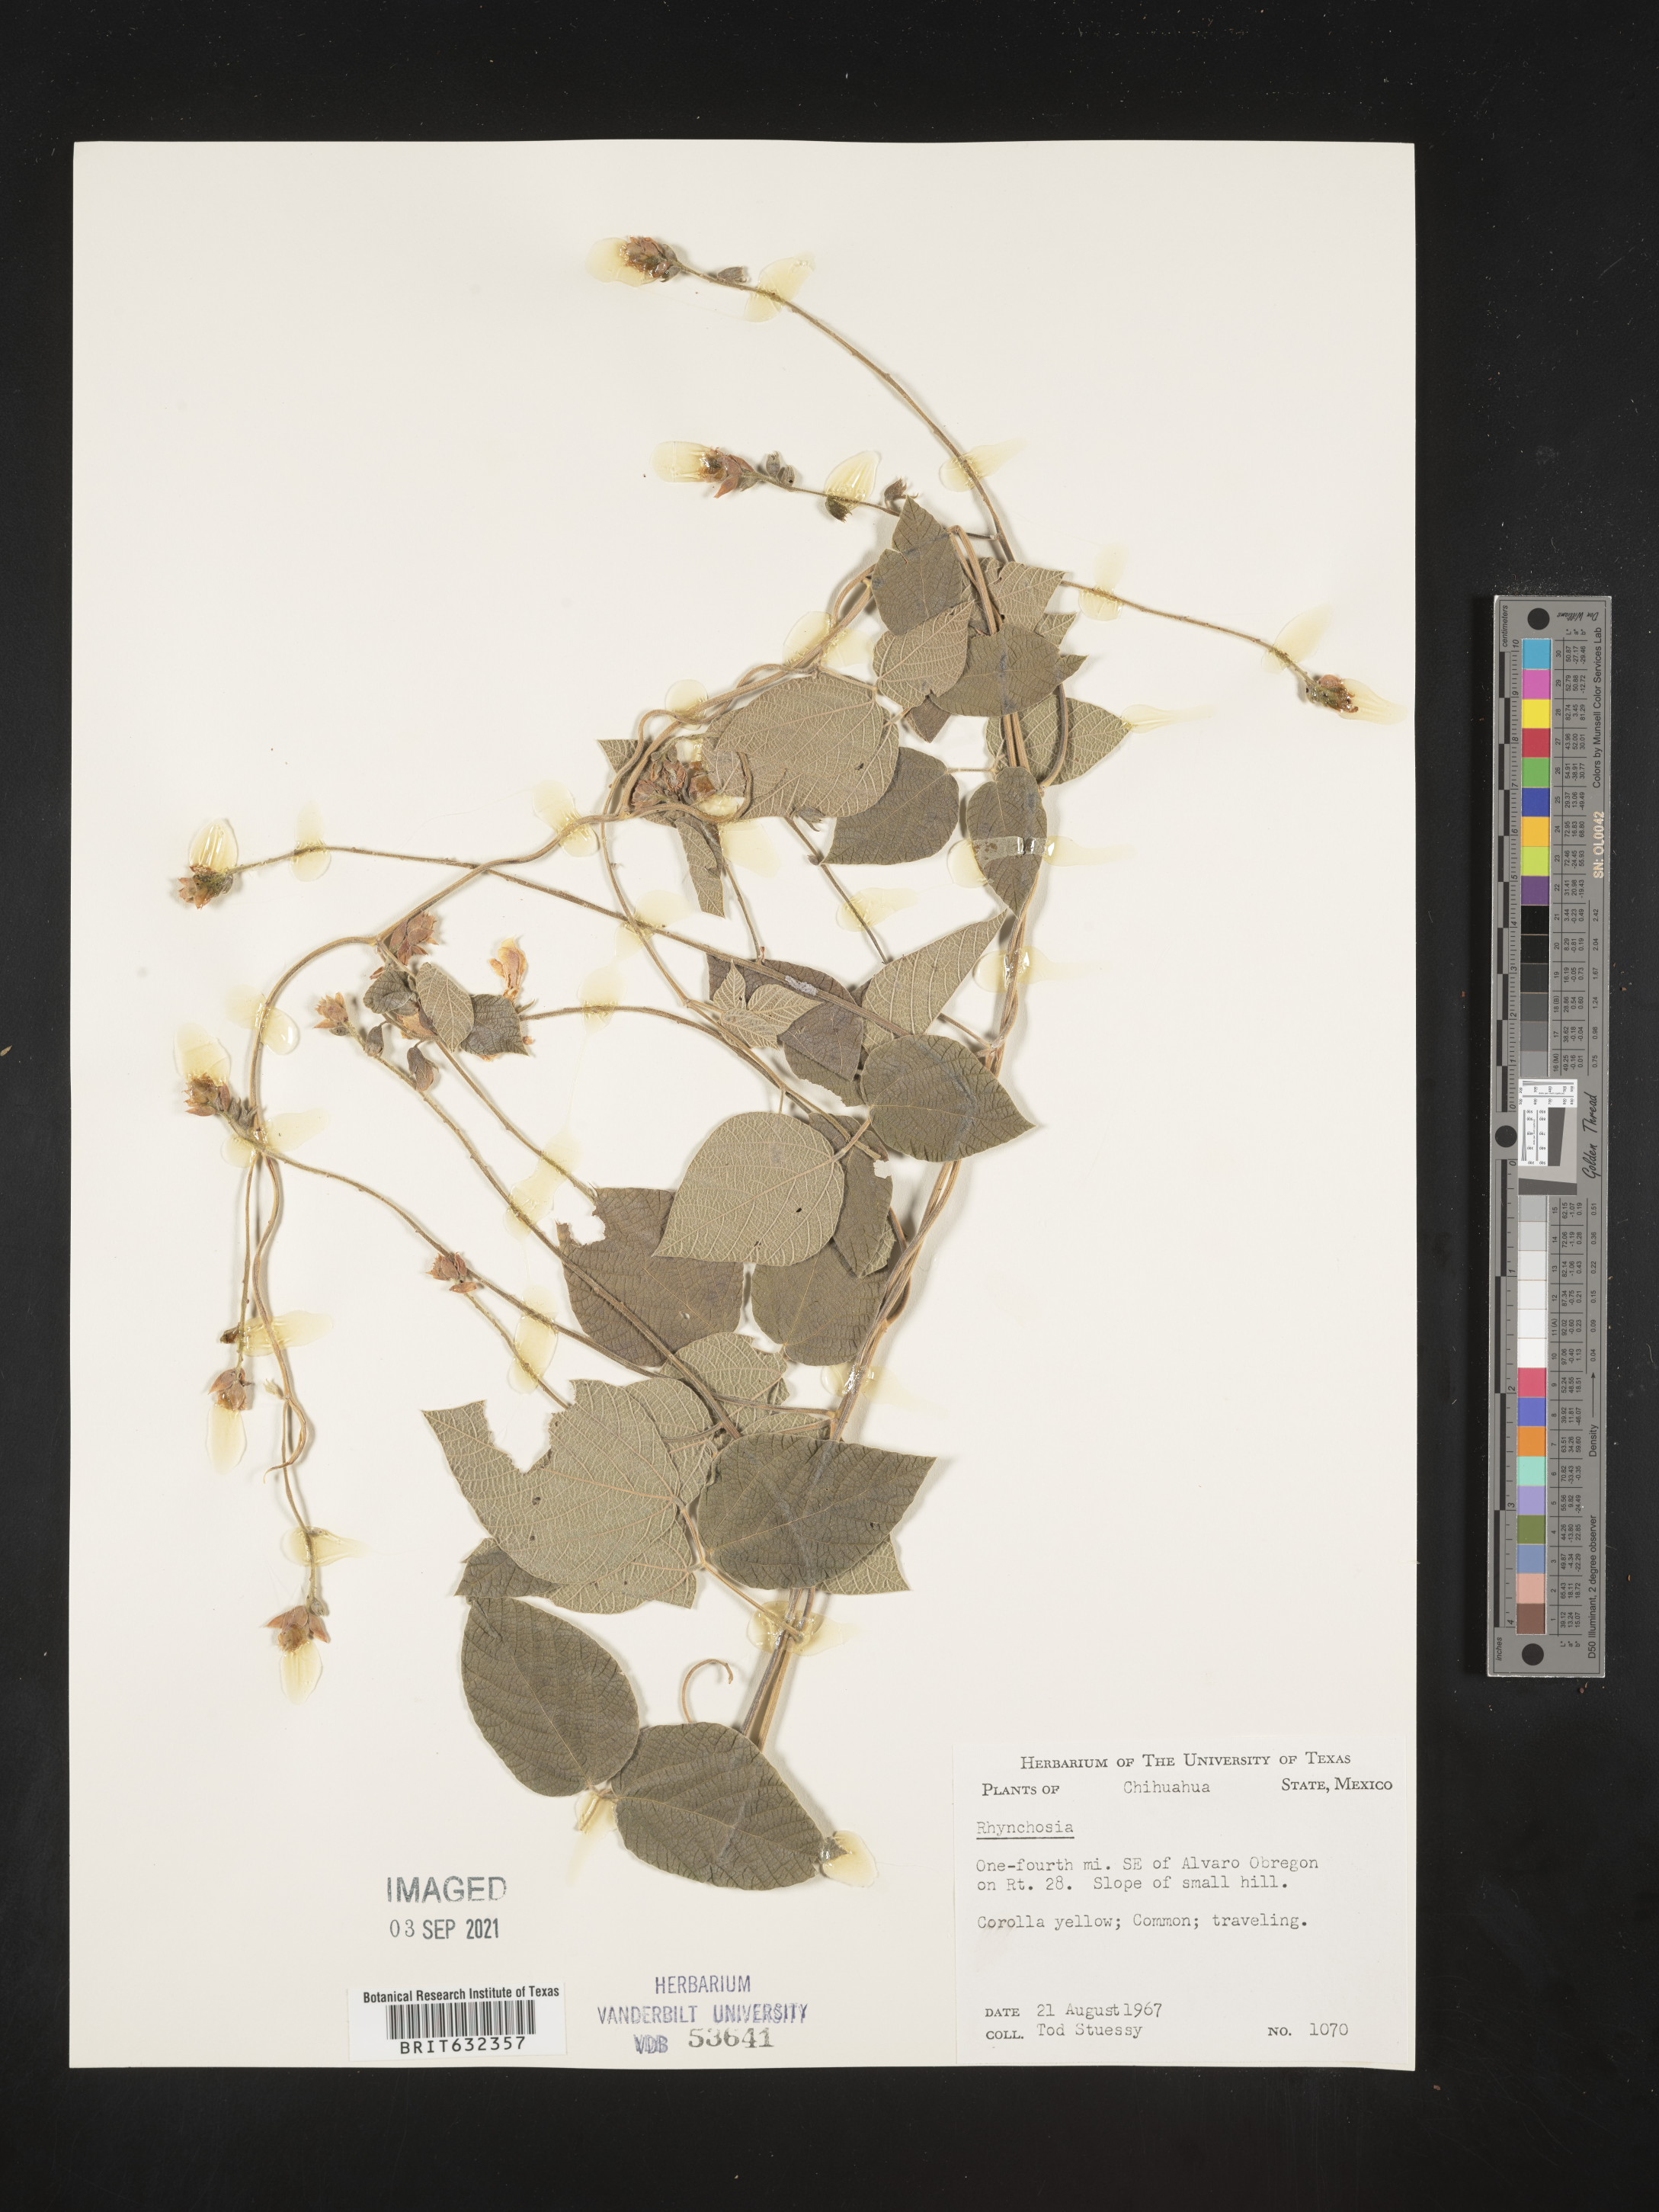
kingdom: Plantae
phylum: Tracheophyta
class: Magnoliopsida
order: Fabales
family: Fabaceae
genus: Rhynchosia
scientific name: Rhynchosia
